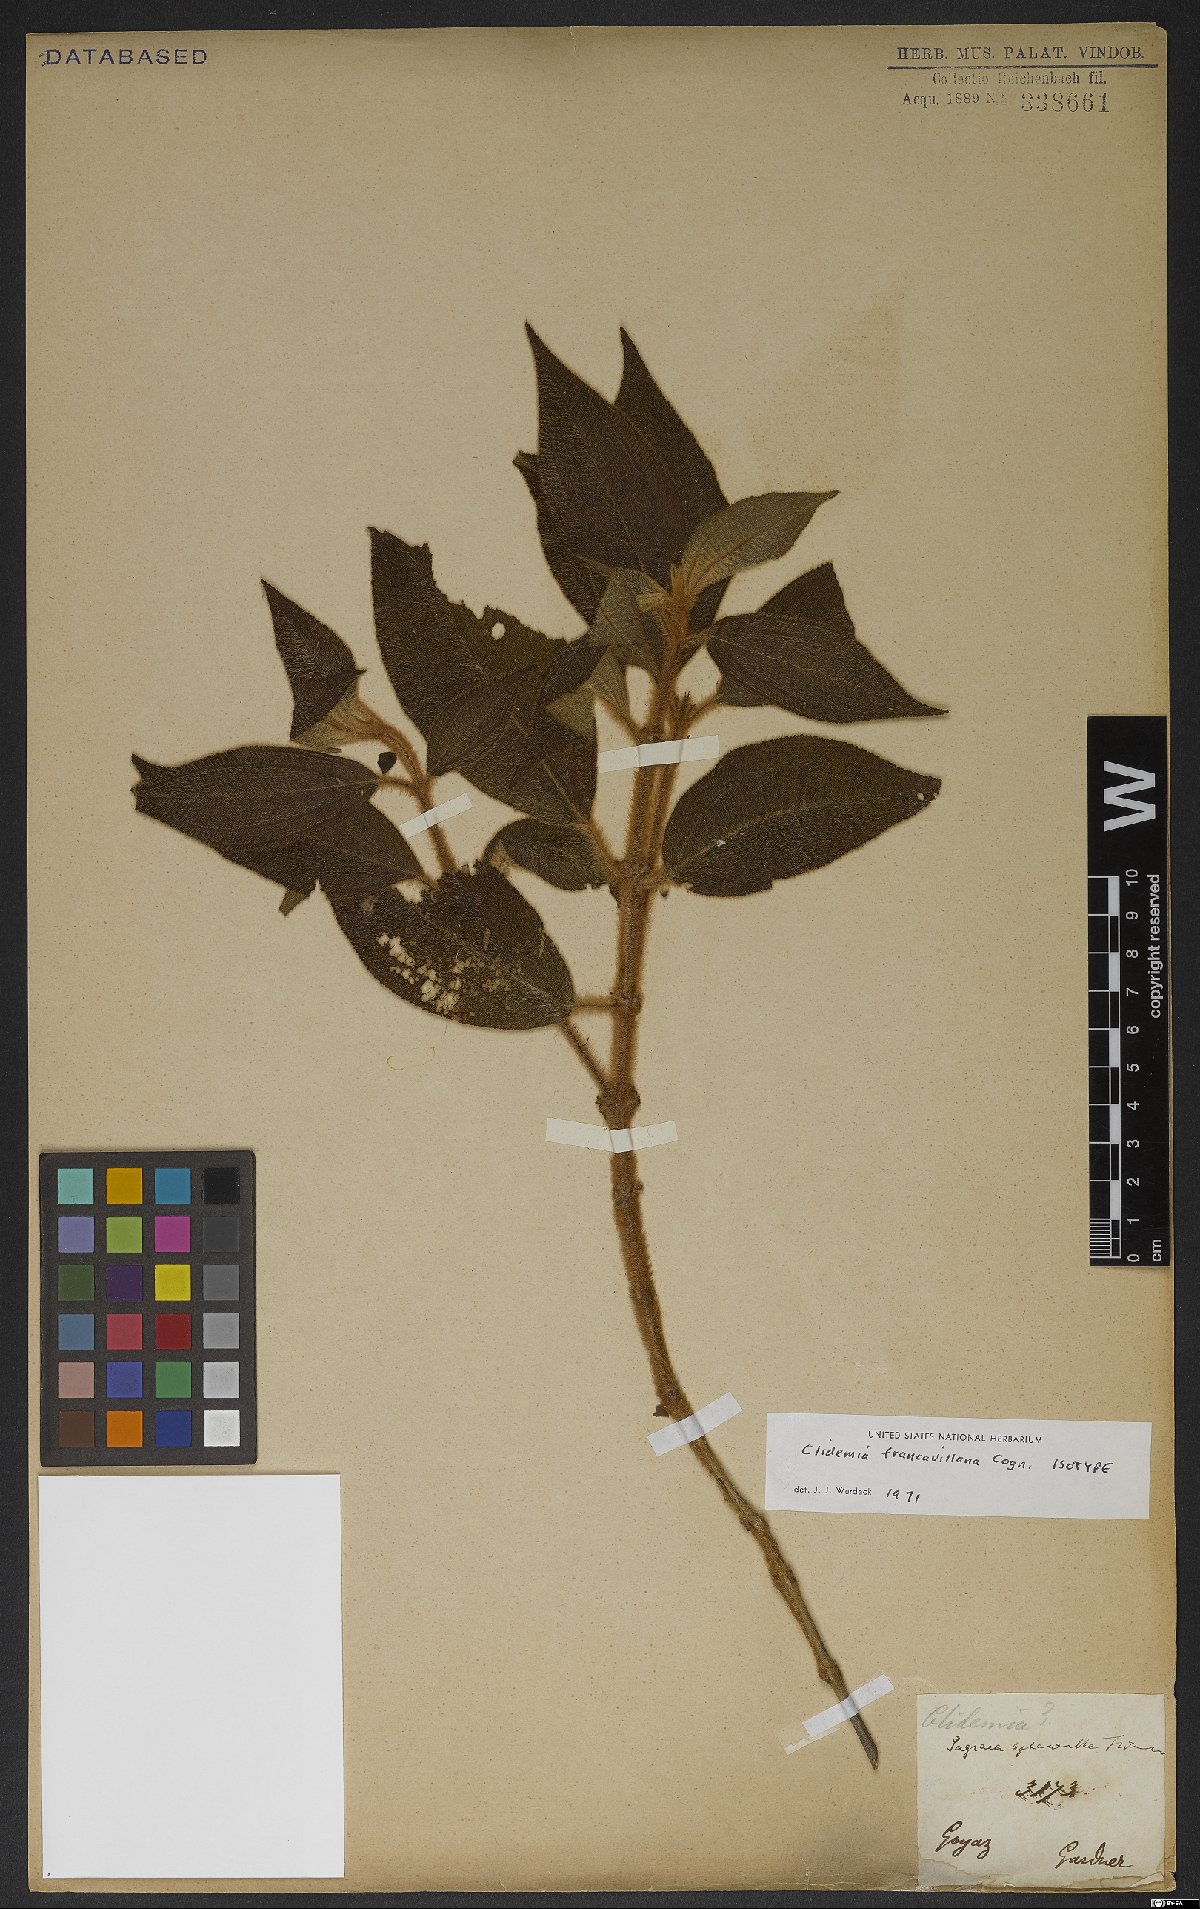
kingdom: Plantae
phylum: Tracheophyta
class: Magnoliopsida
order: Myrtales
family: Melastomataceae
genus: Miconia
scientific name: Miconia pseudodebilis
